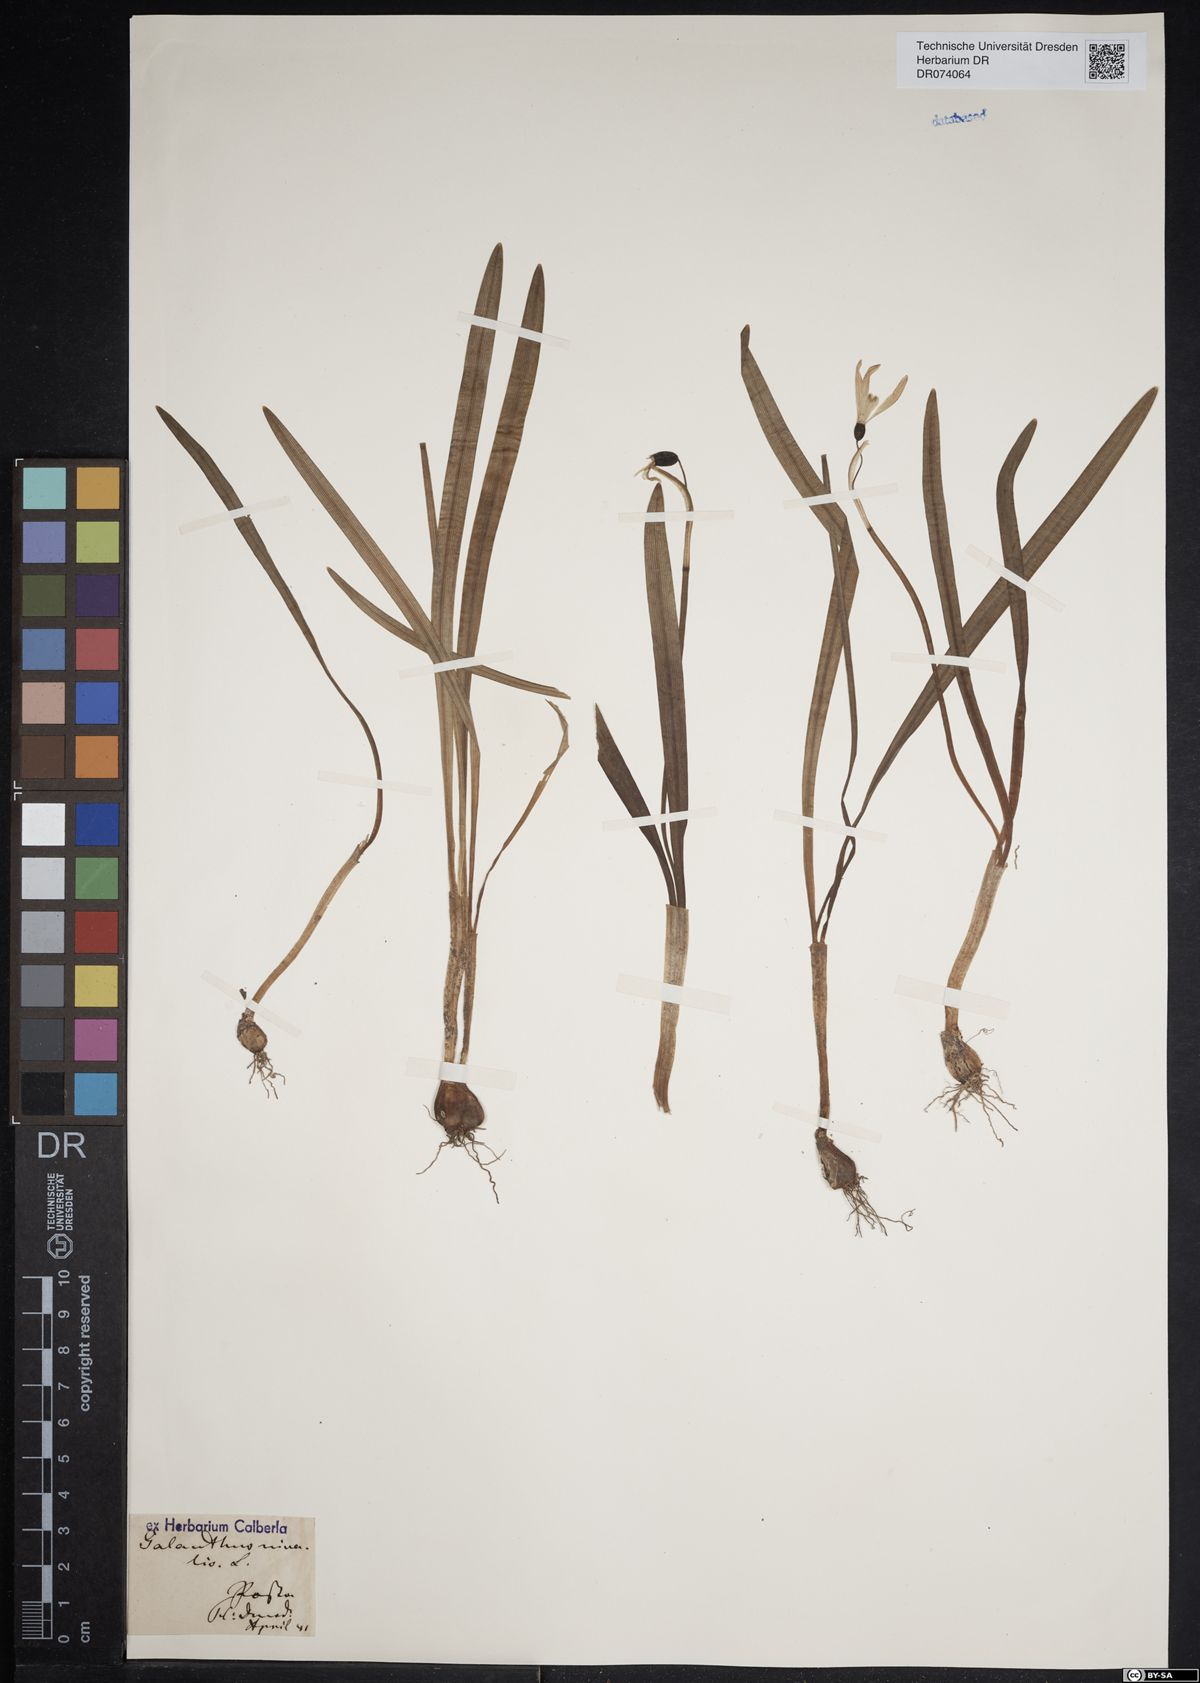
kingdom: Plantae
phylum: Tracheophyta
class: Liliopsida
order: Asparagales
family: Amaryllidaceae
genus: Galanthus
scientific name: Galanthus nivalis
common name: Snowdrop
